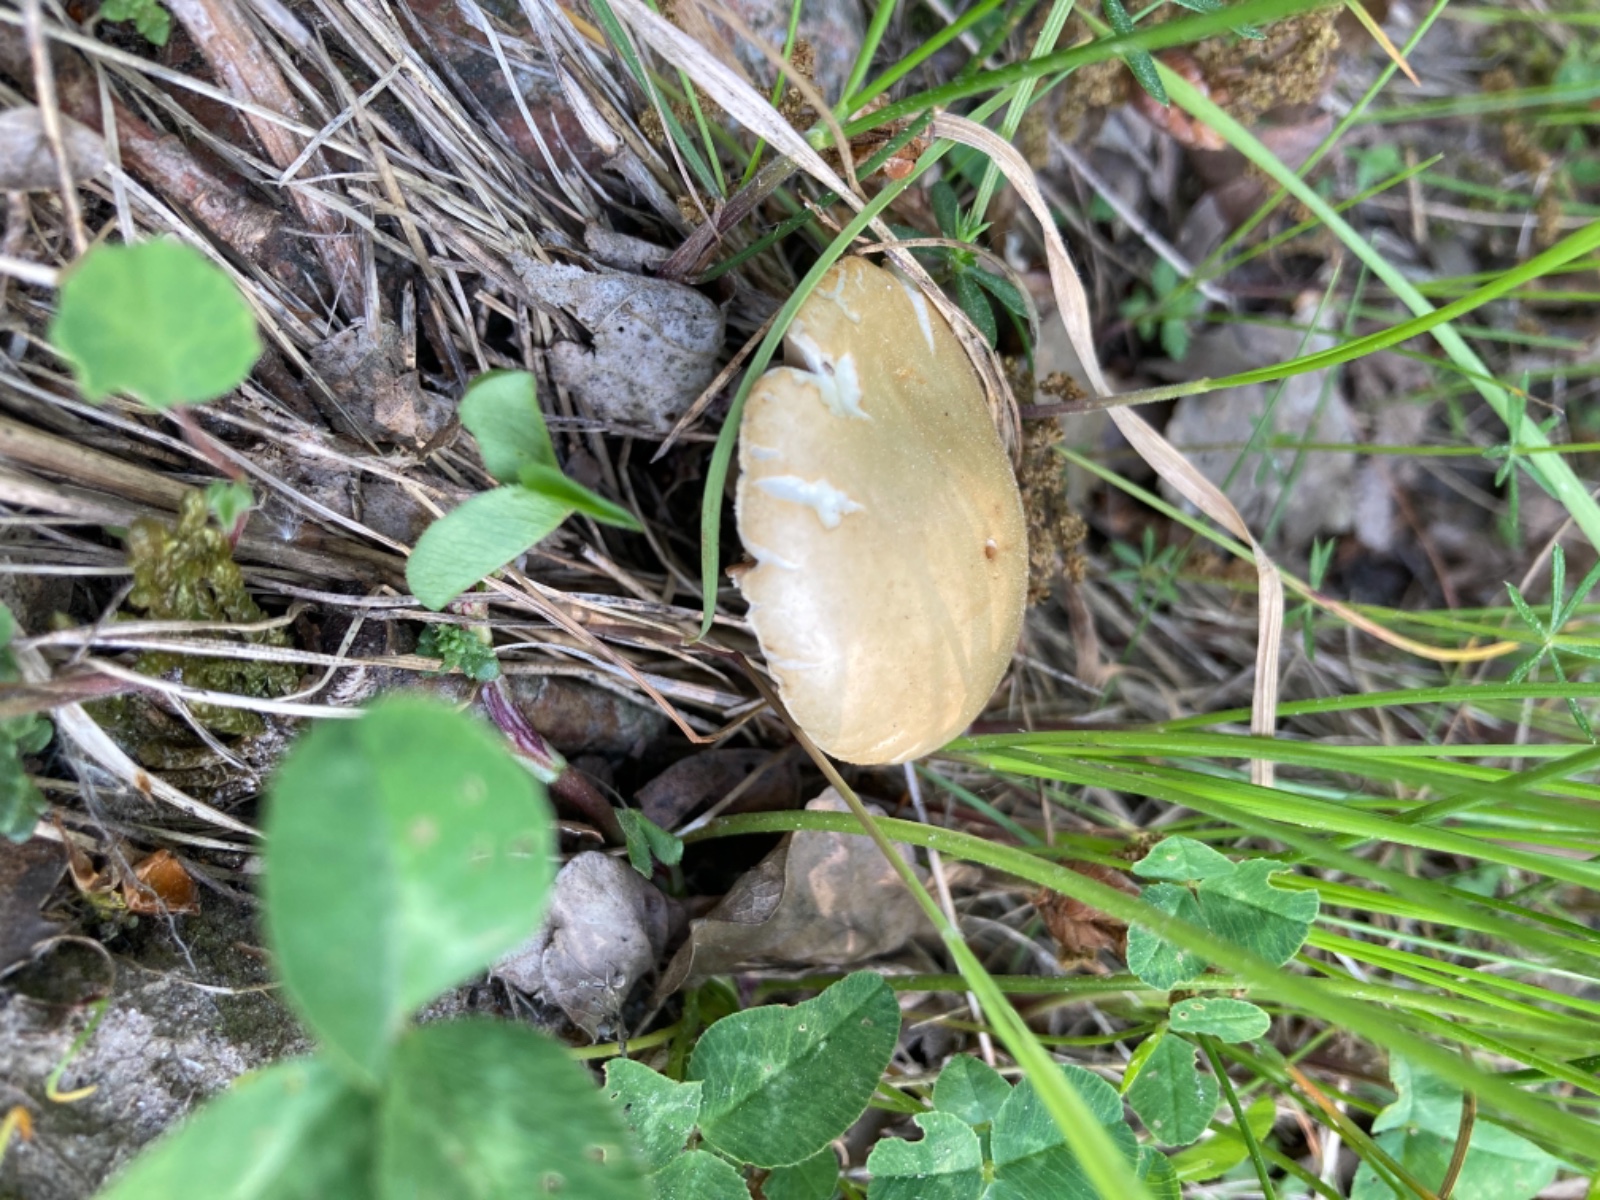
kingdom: Fungi
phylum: Basidiomycota
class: Agaricomycetes
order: Agaricales
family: Strophariaceae
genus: Agrocybe
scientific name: Agrocybe praecox
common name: tidlig agerhat
